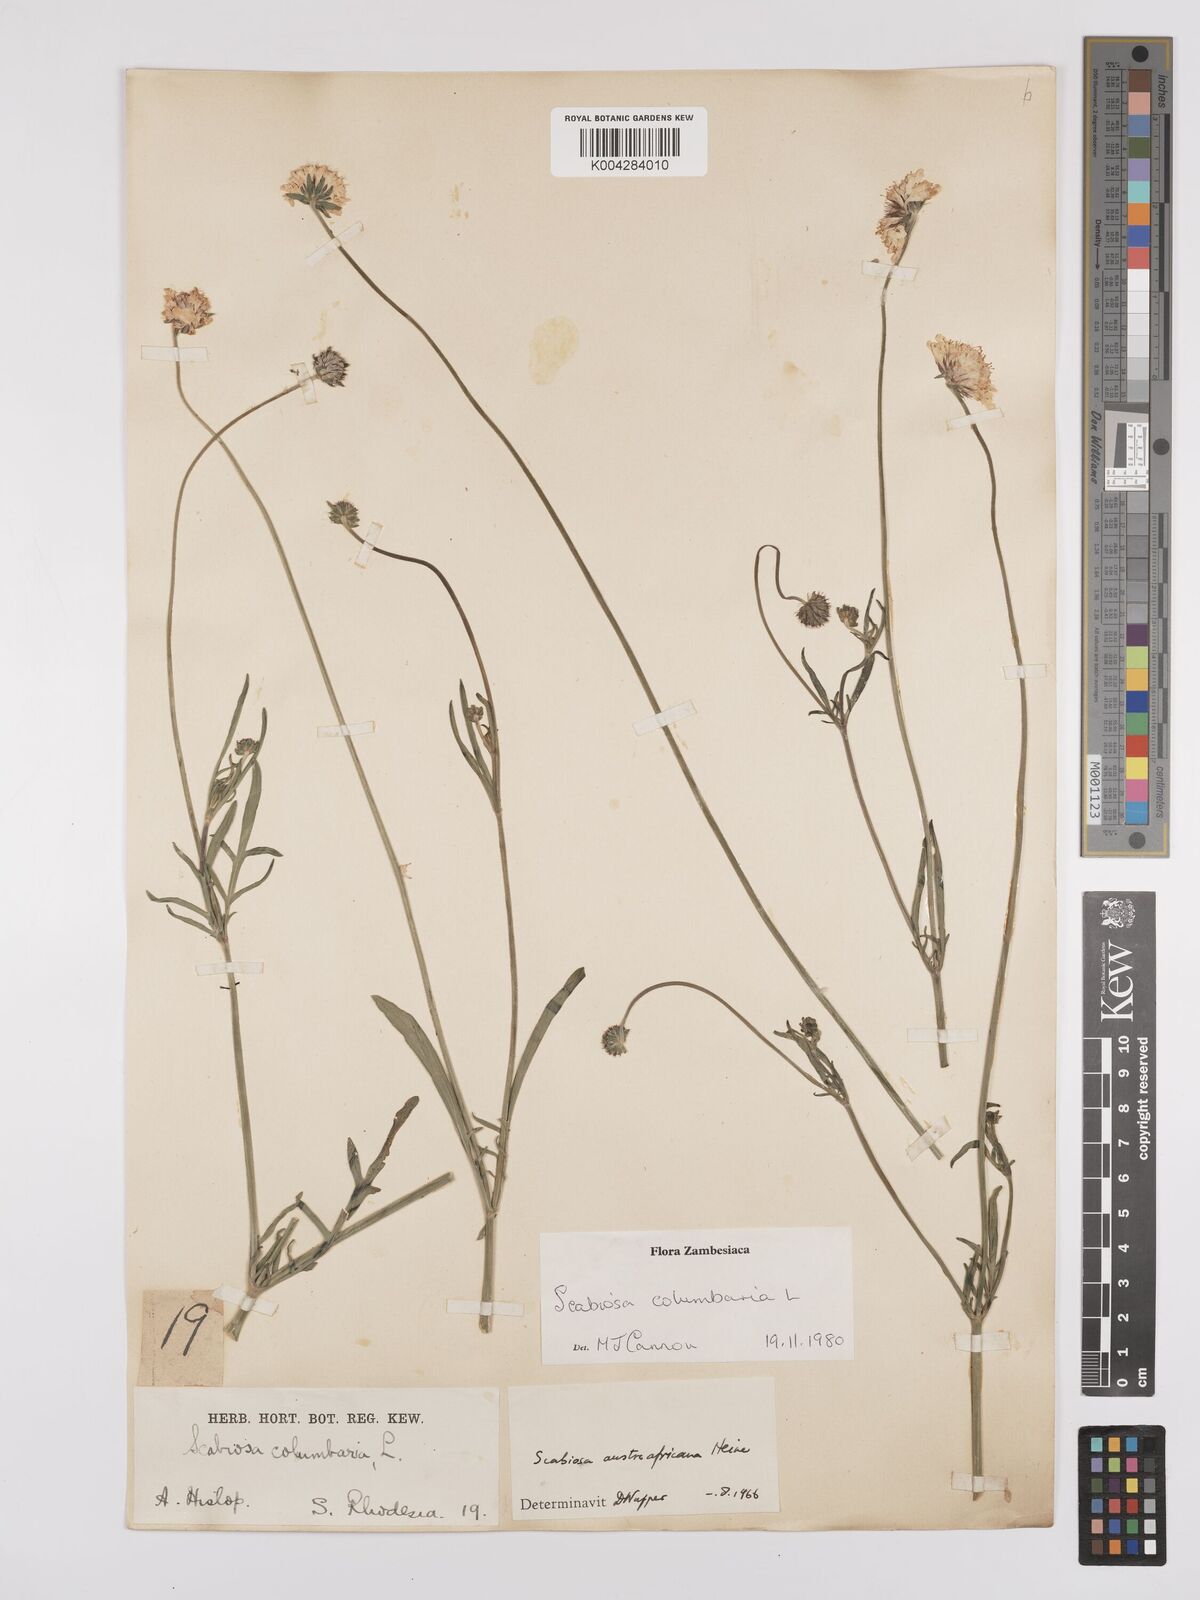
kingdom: Plantae
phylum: Tracheophyta
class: Magnoliopsida
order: Dipsacales
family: Caprifoliaceae
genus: Scabiosa
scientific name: Scabiosa austroafricana
